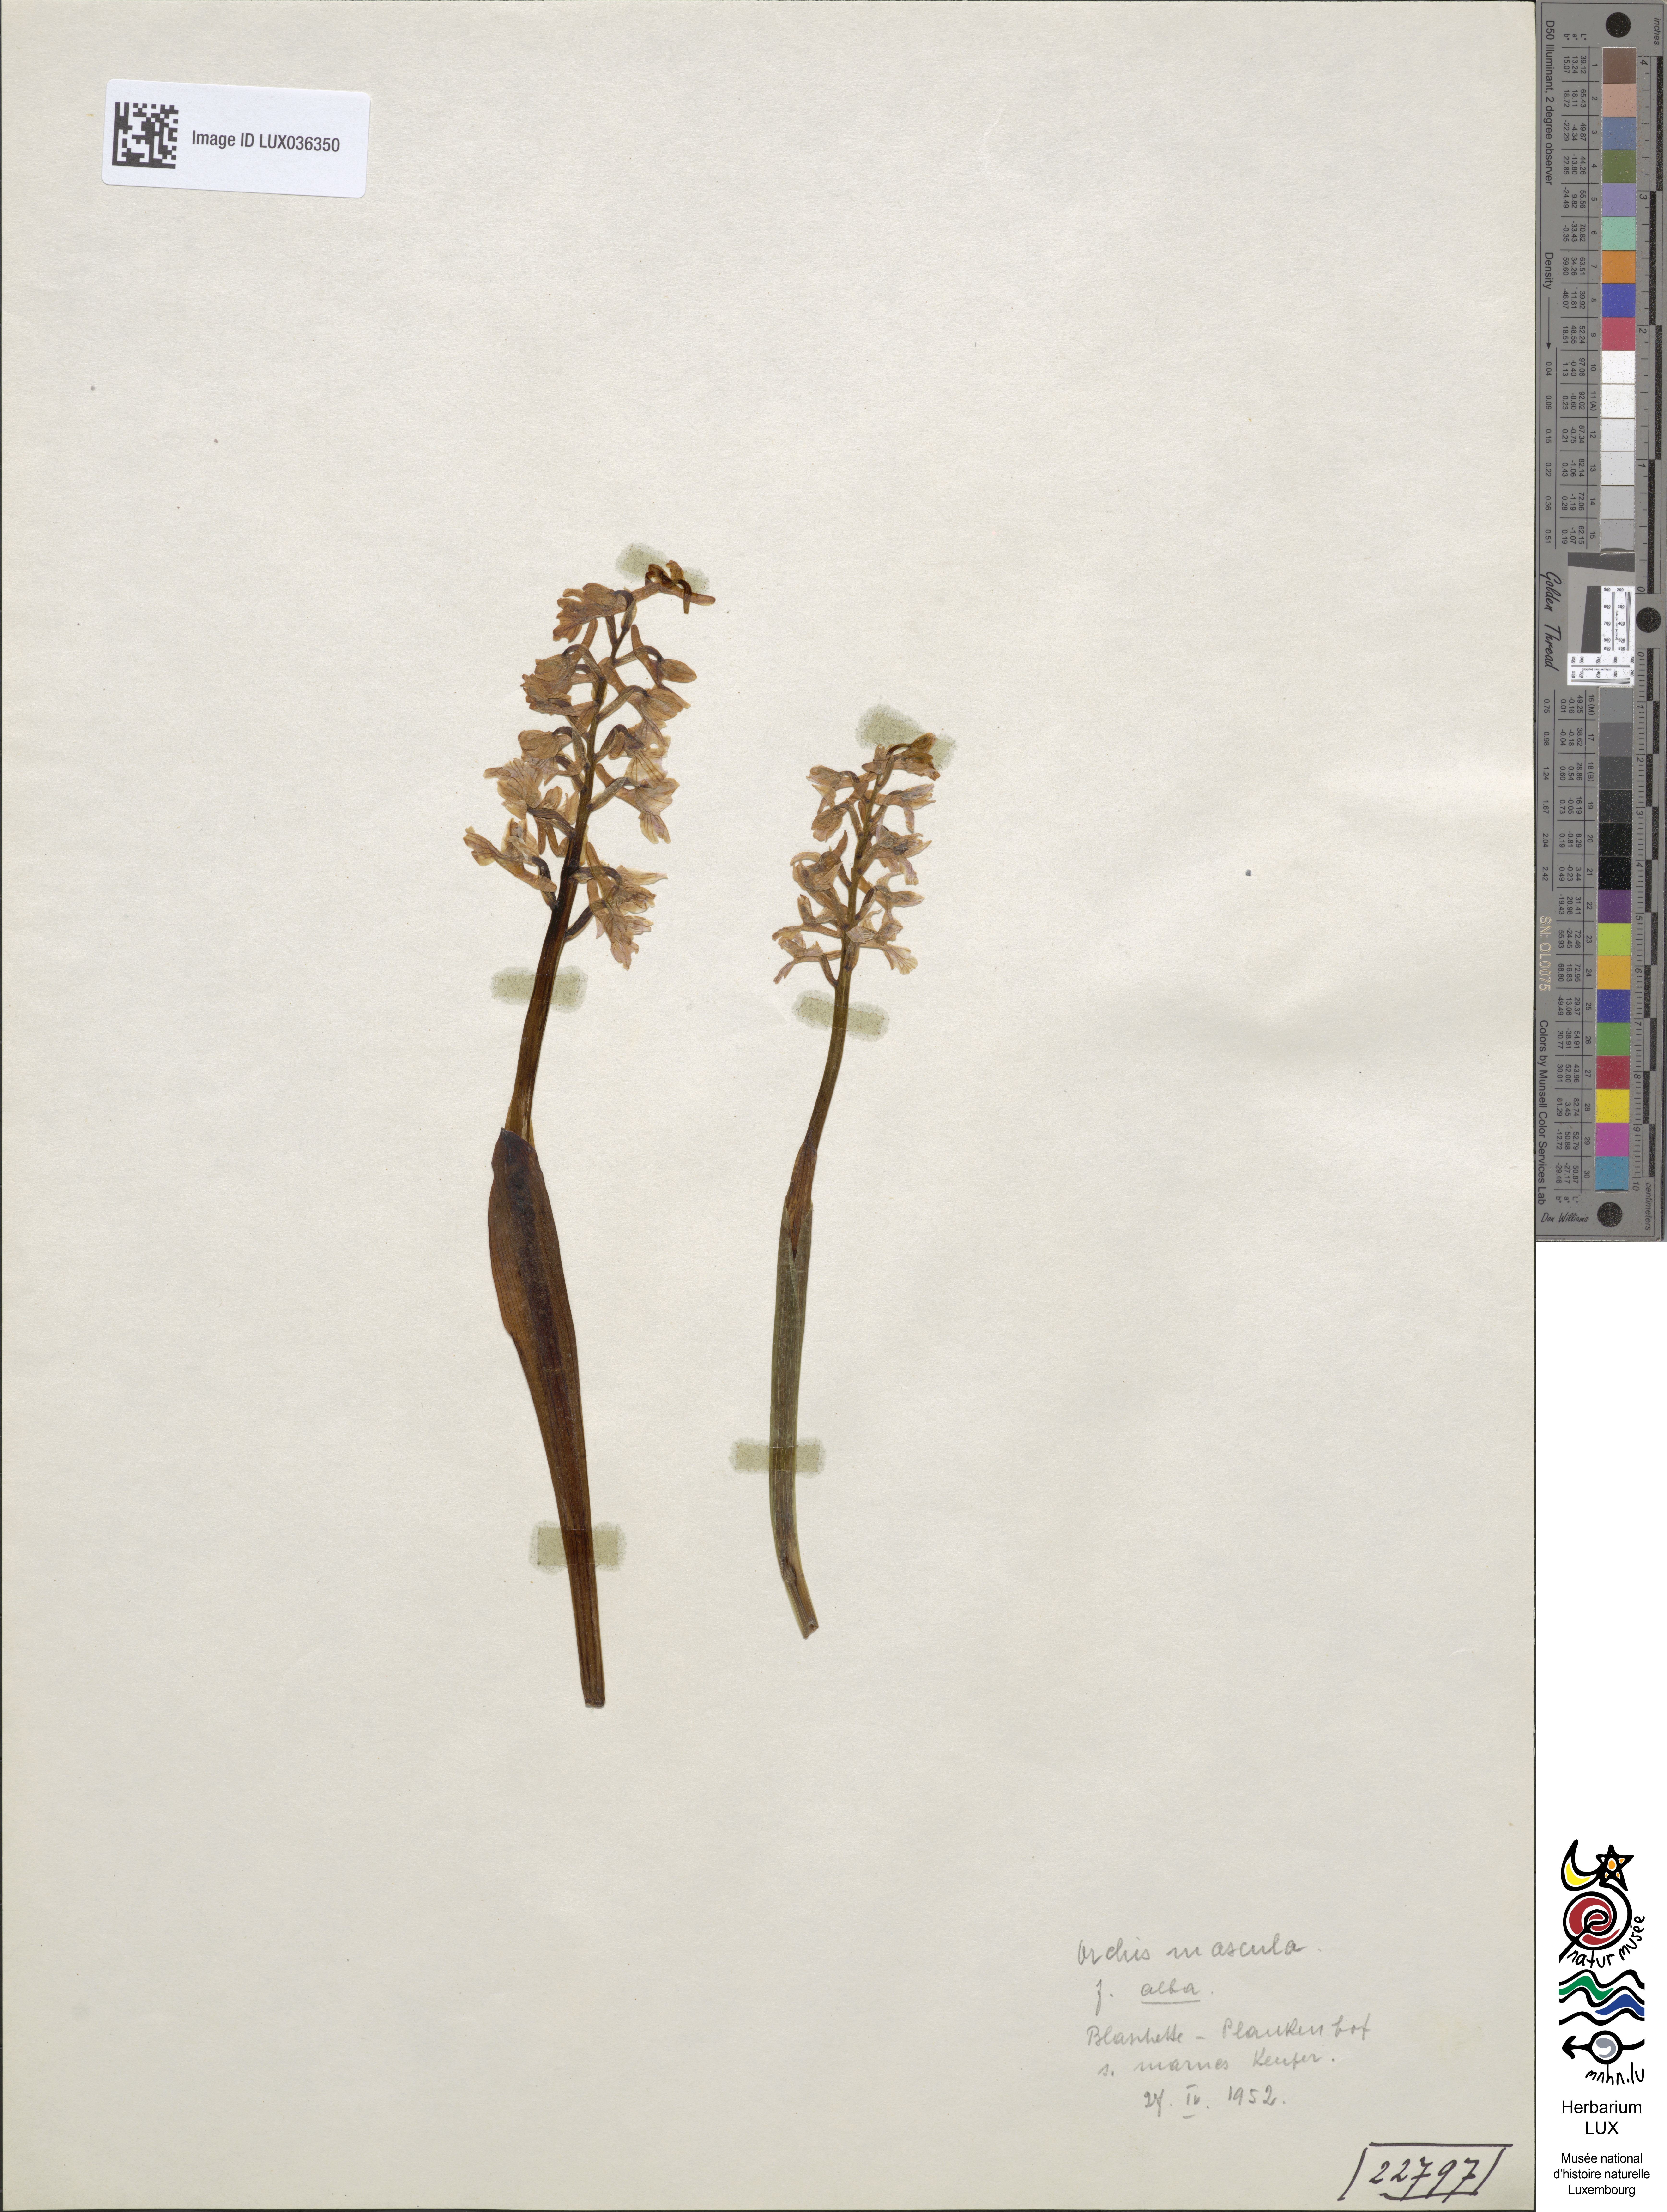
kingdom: Plantae
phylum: Tracheophyta
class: Liliopsida
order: Asparagales
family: Orchidaceae
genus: Orchis
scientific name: Orchis mascula
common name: Early-purple orchid
